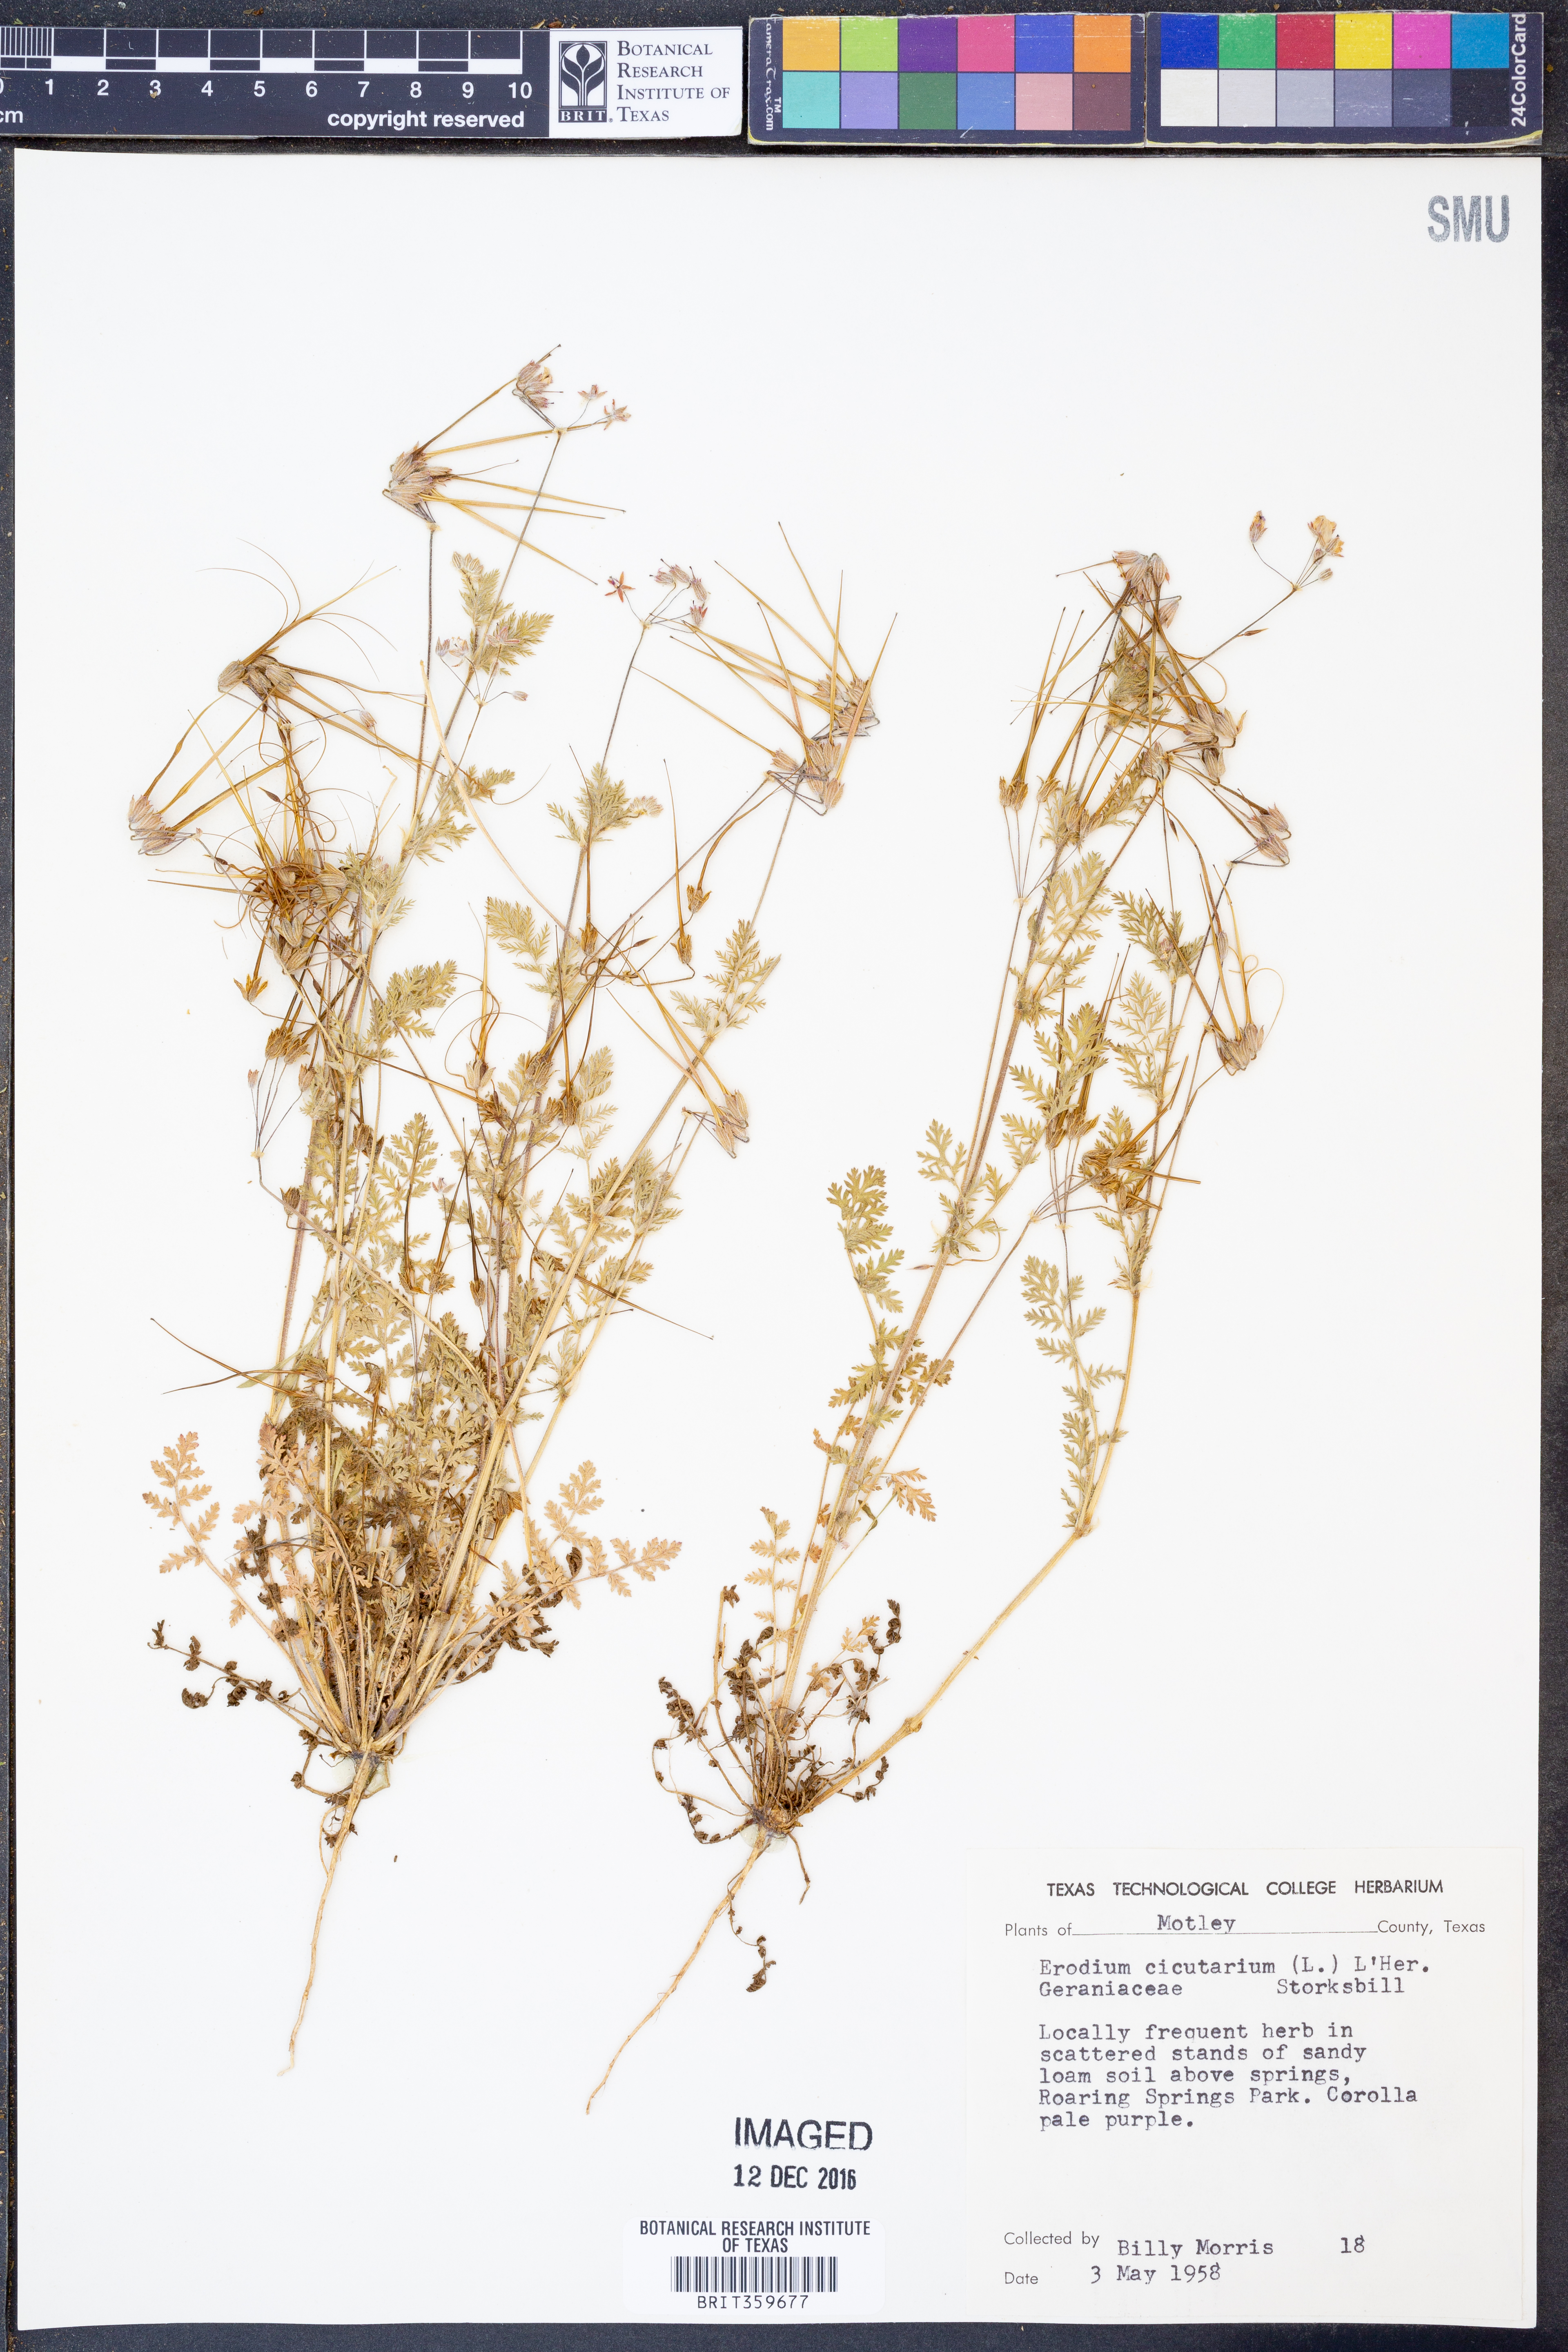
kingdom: Plantae
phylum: Tracheophyta
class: Magnoliopsida
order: Geraniales
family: Geraniaceae
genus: Erodium
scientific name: Erodium cicutarium
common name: Common stork's-bill
